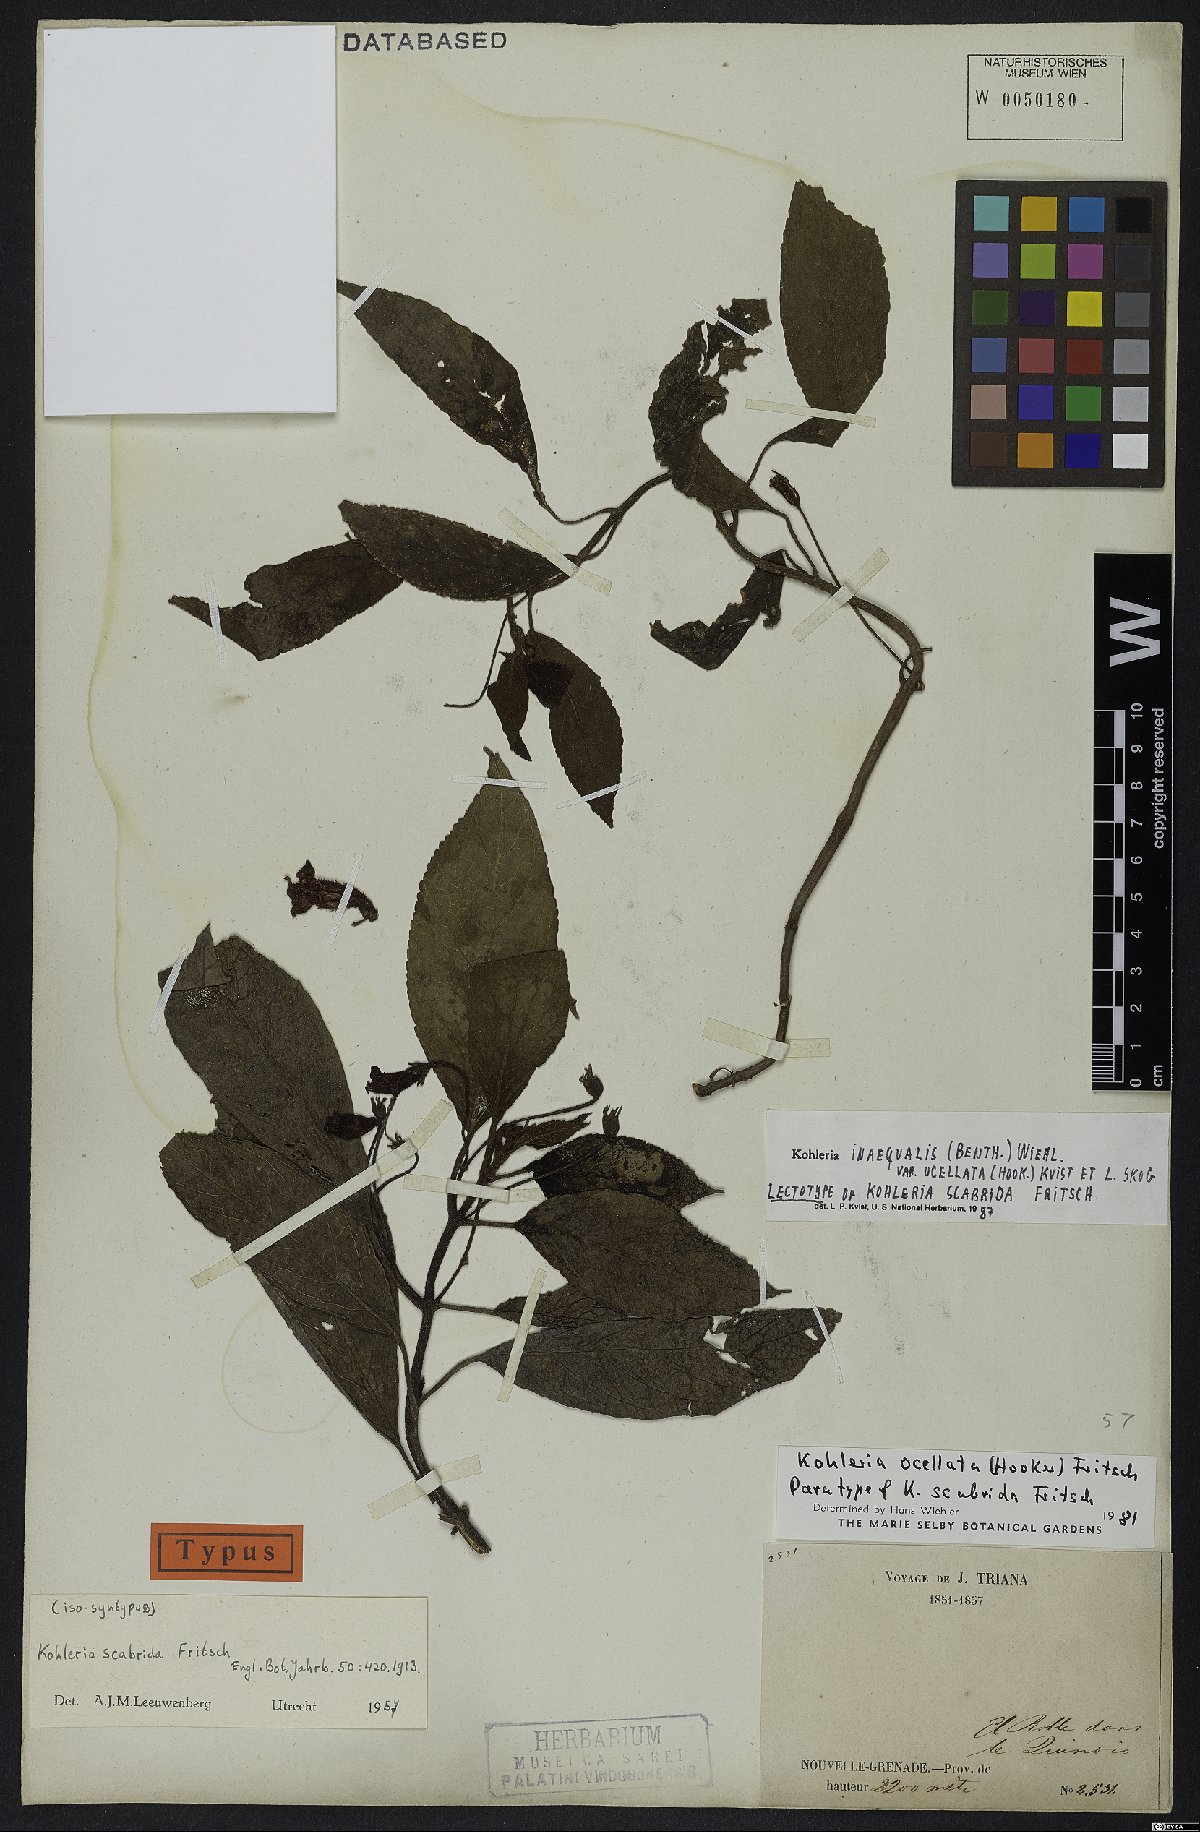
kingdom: Plantae
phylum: Tracheophyta
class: Magnoliopsida
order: Lamiales
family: Gesneriaceae
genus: Kohleria
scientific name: Kohleria inaequalis
